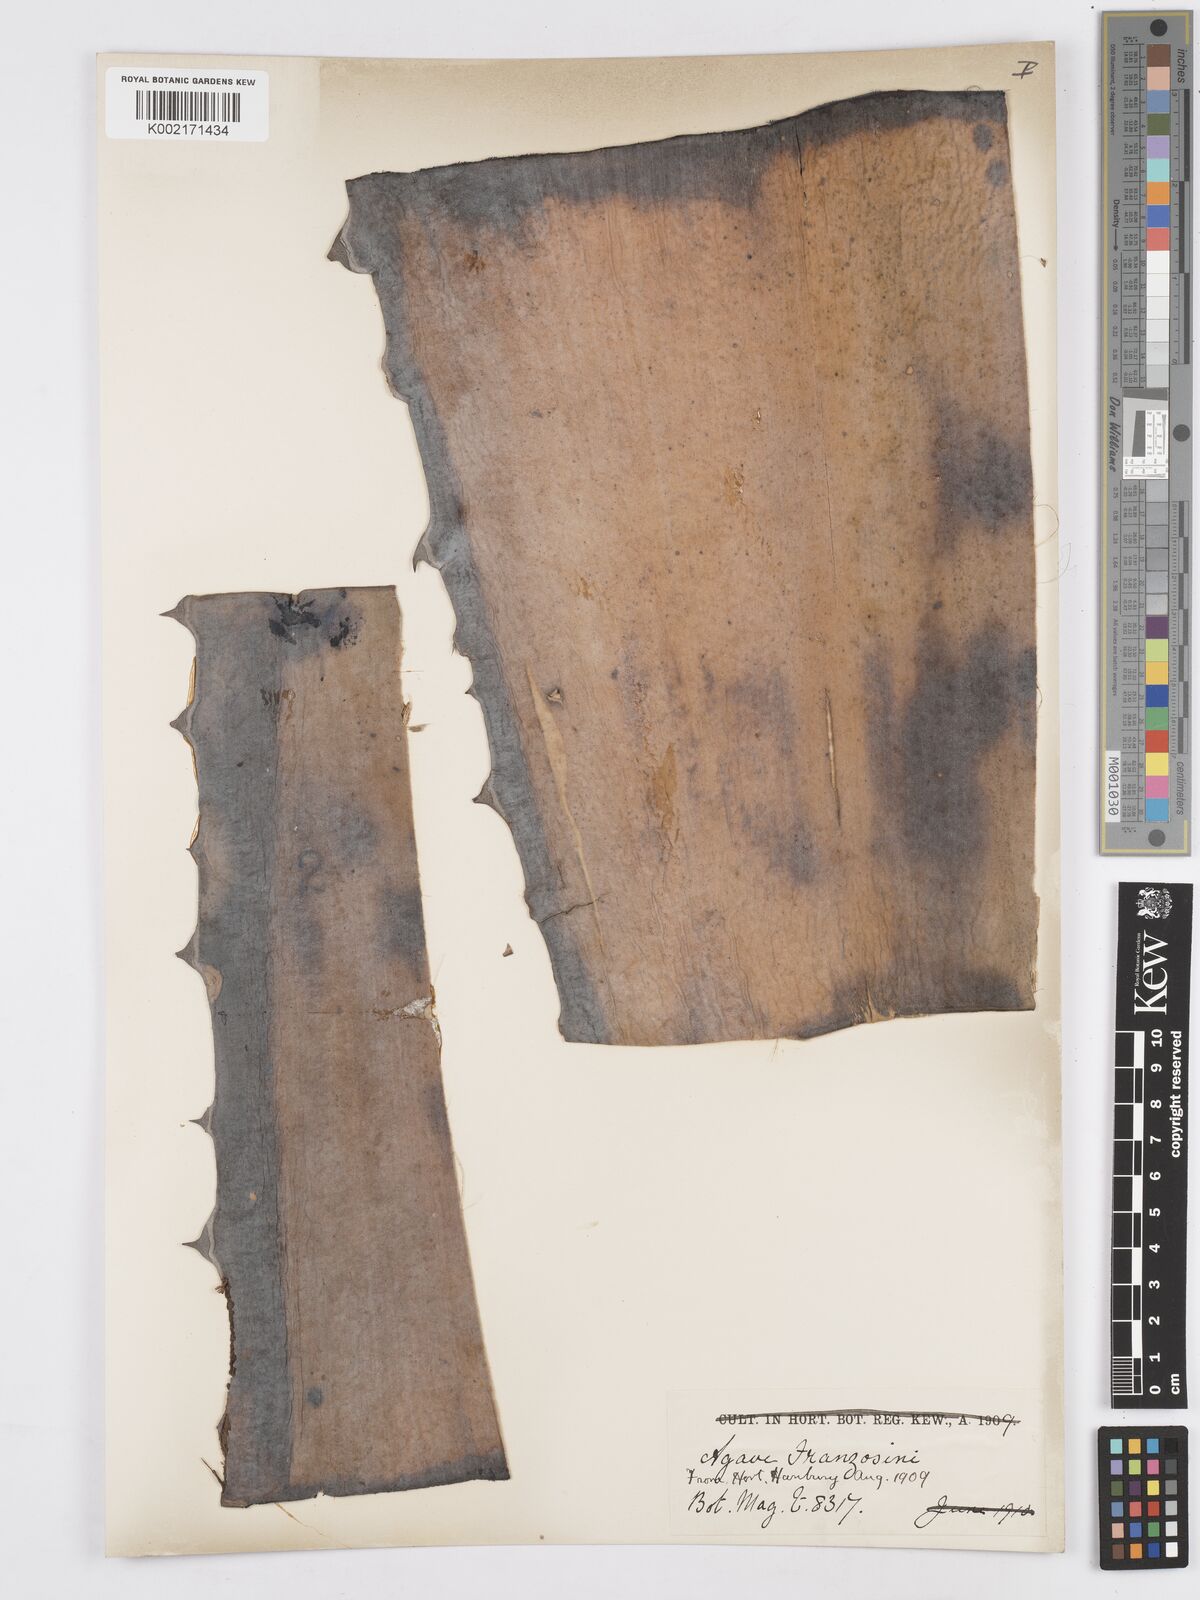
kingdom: Plantae
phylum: Tracheophyta
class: Liliopsida
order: Asparagales
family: Asparagaceae
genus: Agave
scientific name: Agave americana
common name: Centuryplant
